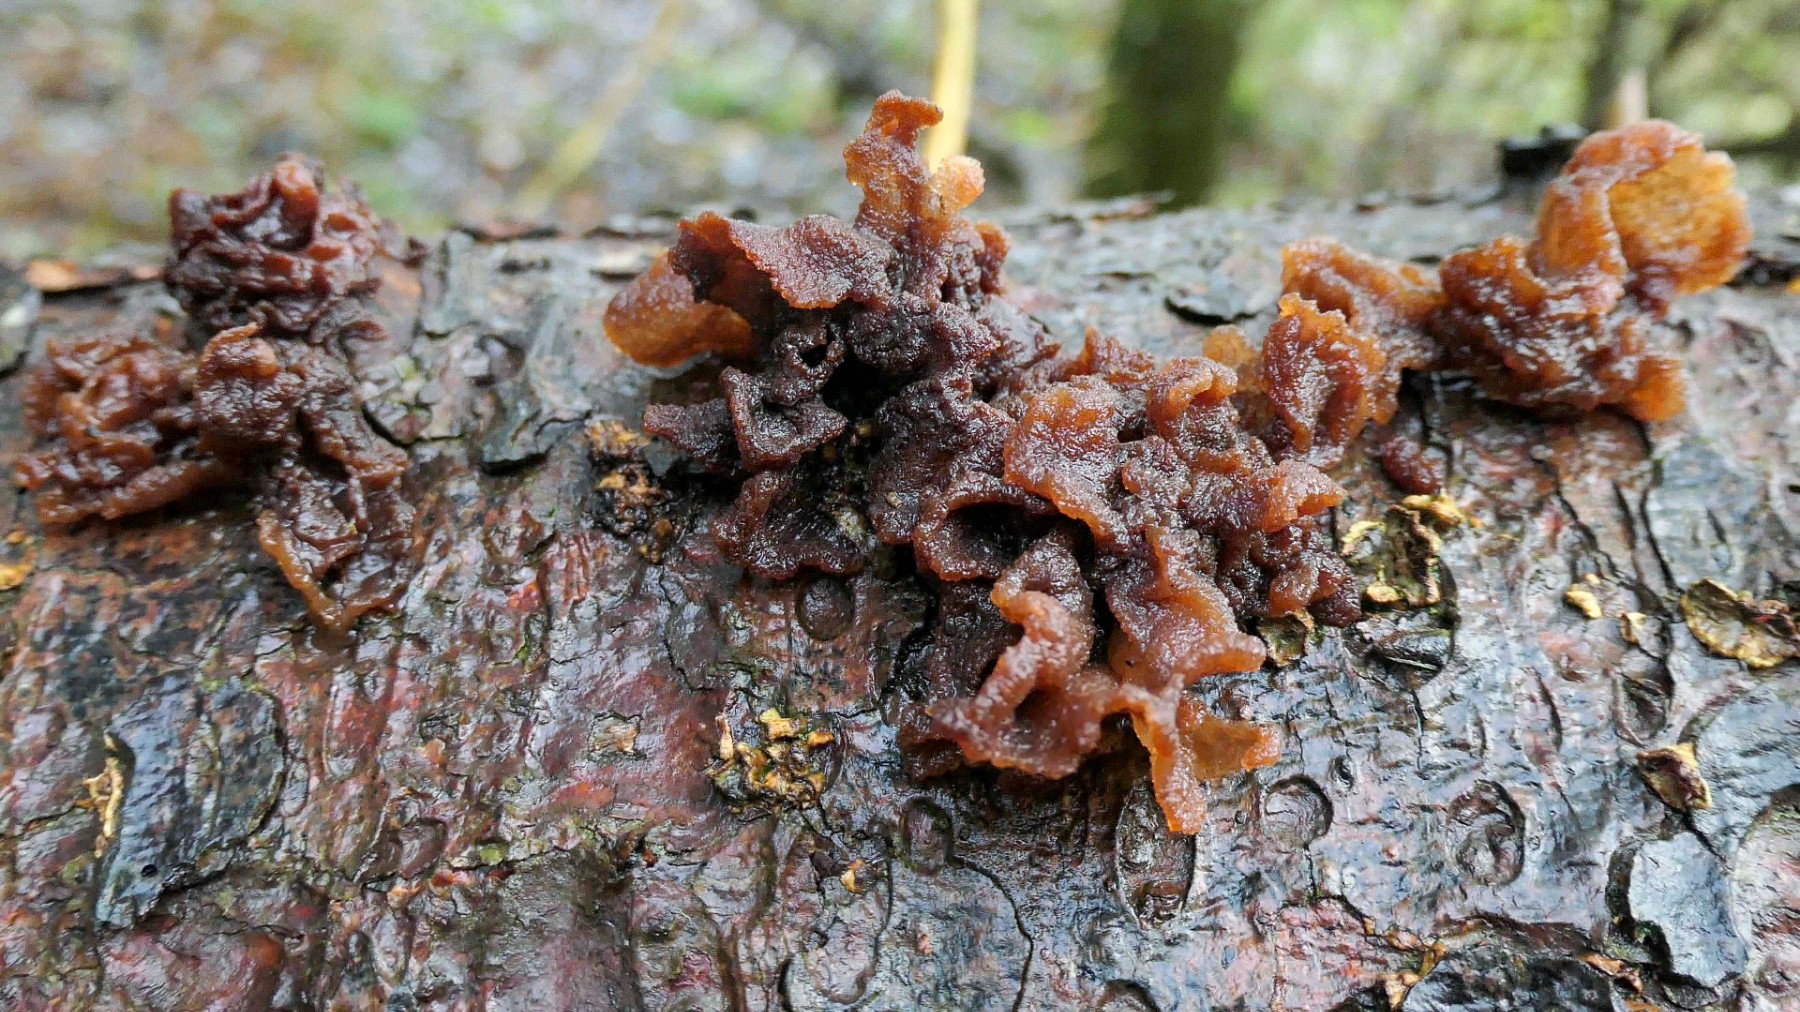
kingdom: Fungi
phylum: Basidiomycota
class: Tremellomycetes
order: Tremellales
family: Tremellaceae
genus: Phaeotremella
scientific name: Phaeotremella foliacea
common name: brun bævresvamp
